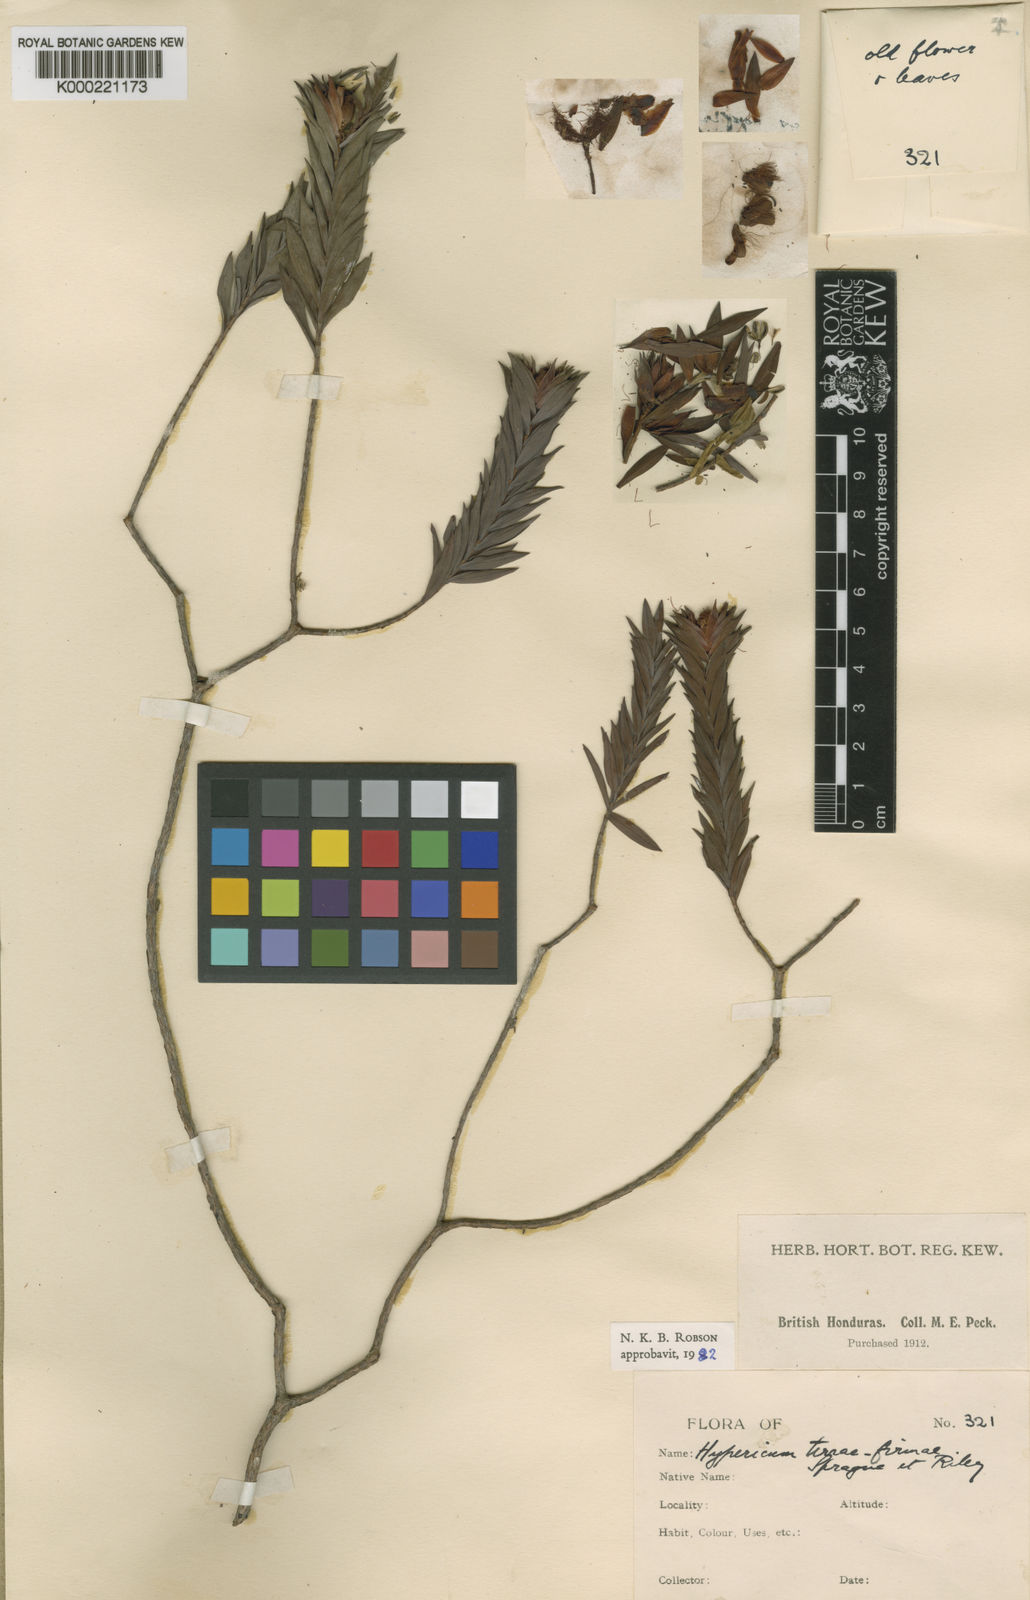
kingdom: Plantae
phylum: Tracheophyta
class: Magnoliopsida
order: Malpighiales
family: Hypericaceae
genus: Hypericum
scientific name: Hypericum styphelioides
